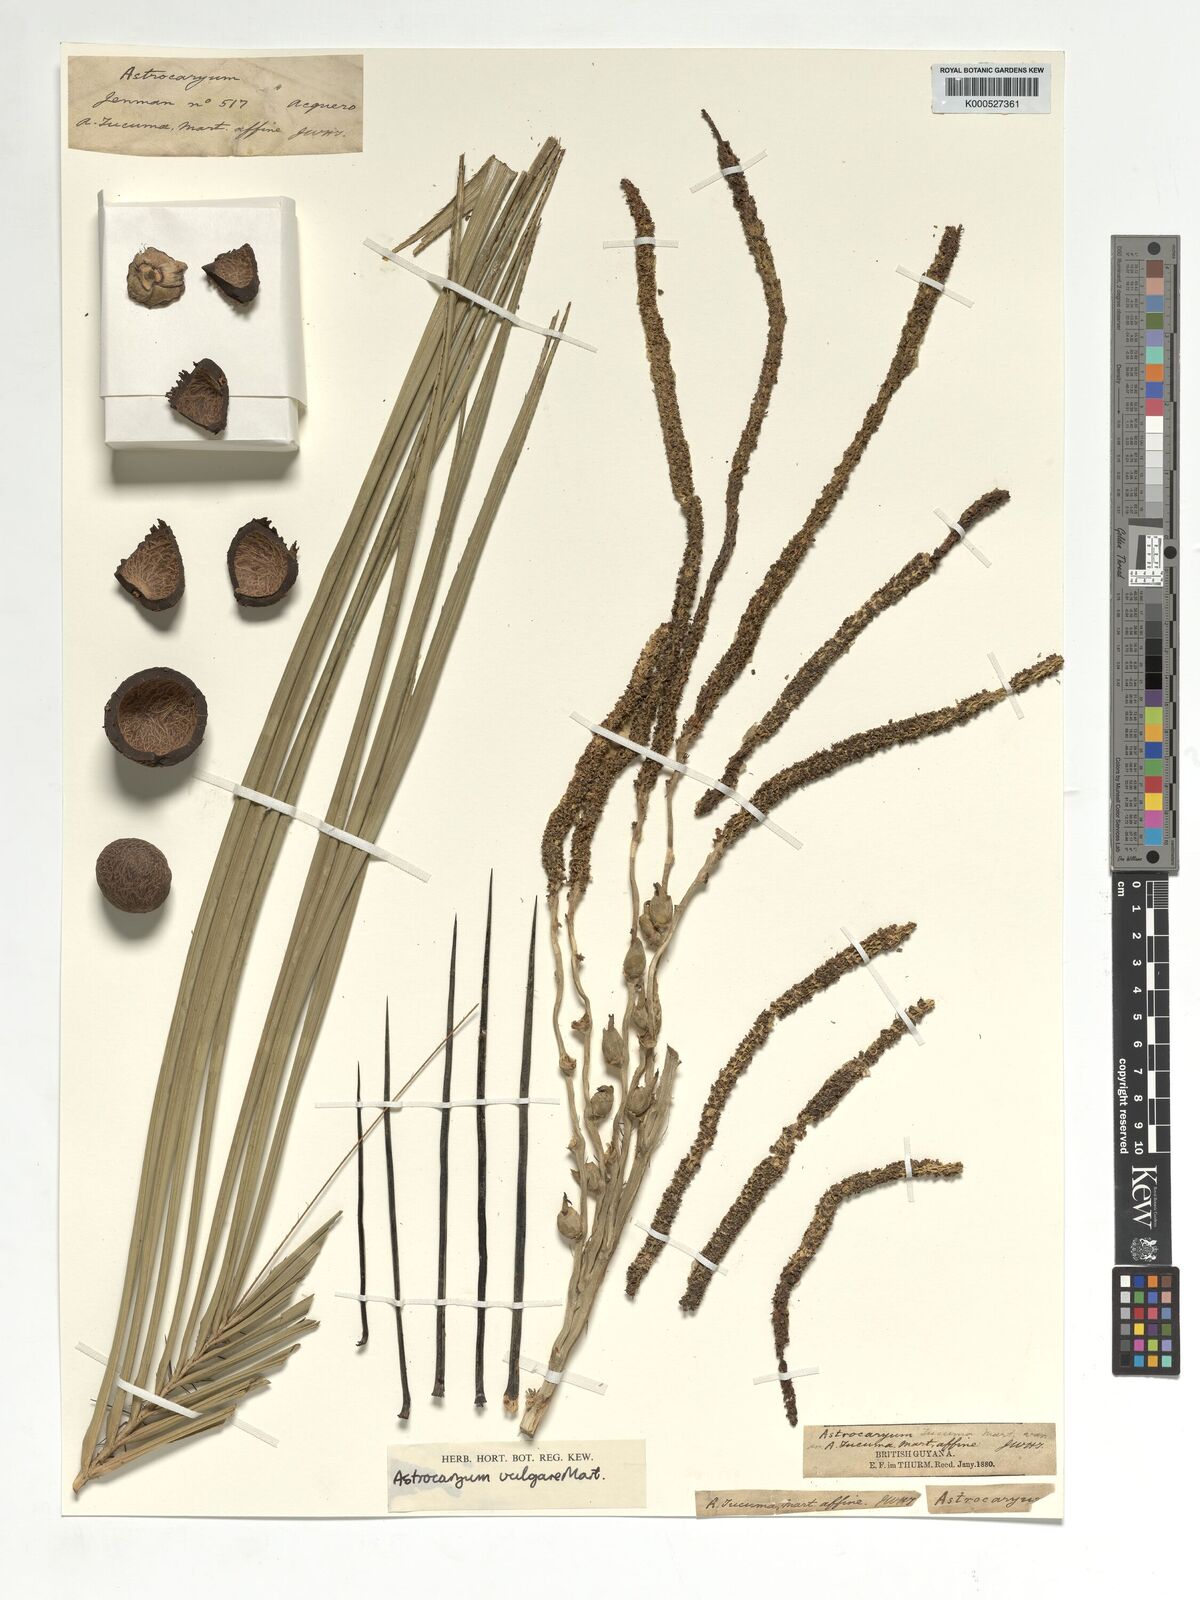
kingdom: Plantae
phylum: Tracheophyta
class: Liliopsida
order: Arecales
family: Arecaceae
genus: Astrocaryum
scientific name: Astrocaryum vulgare
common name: Tucum palm
